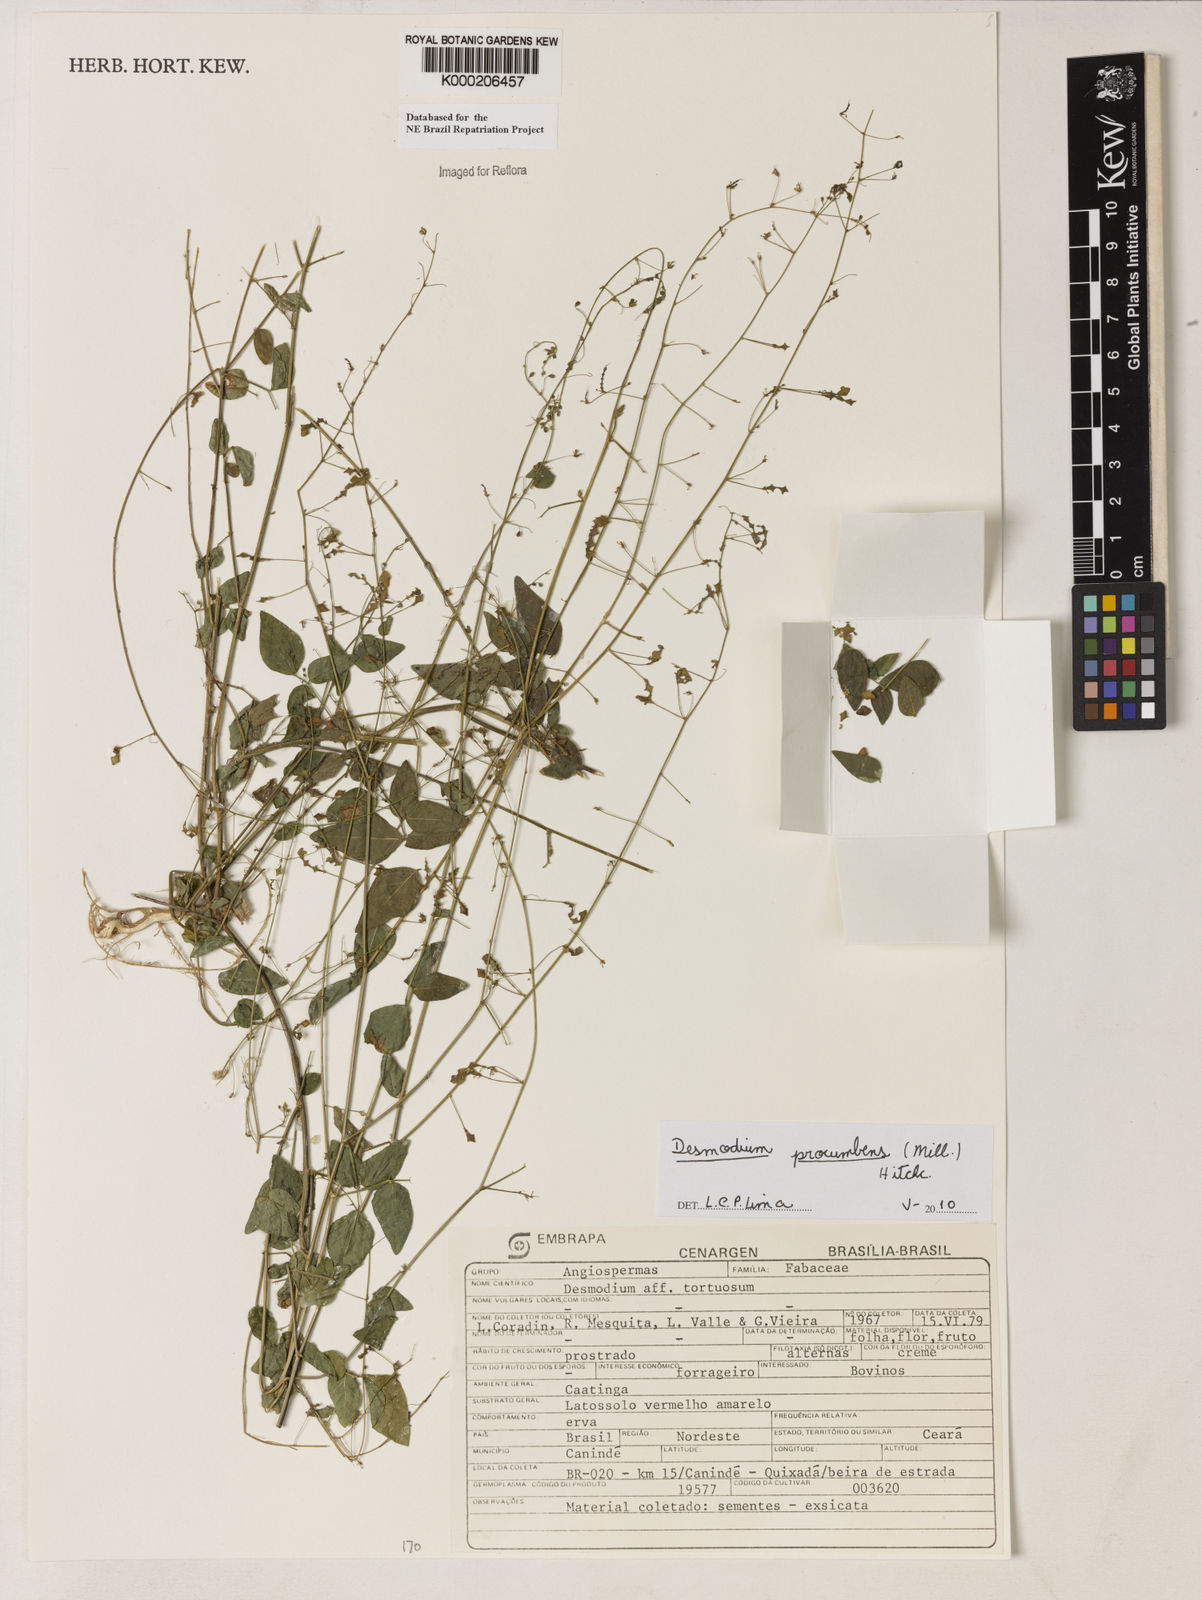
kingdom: Plantae
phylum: Tracheophyta
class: Magnoliopsida
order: Fabales
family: Fabaceae
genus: Desmodium
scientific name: Desmodium tortuosum
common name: Dixie ticktrefoil
